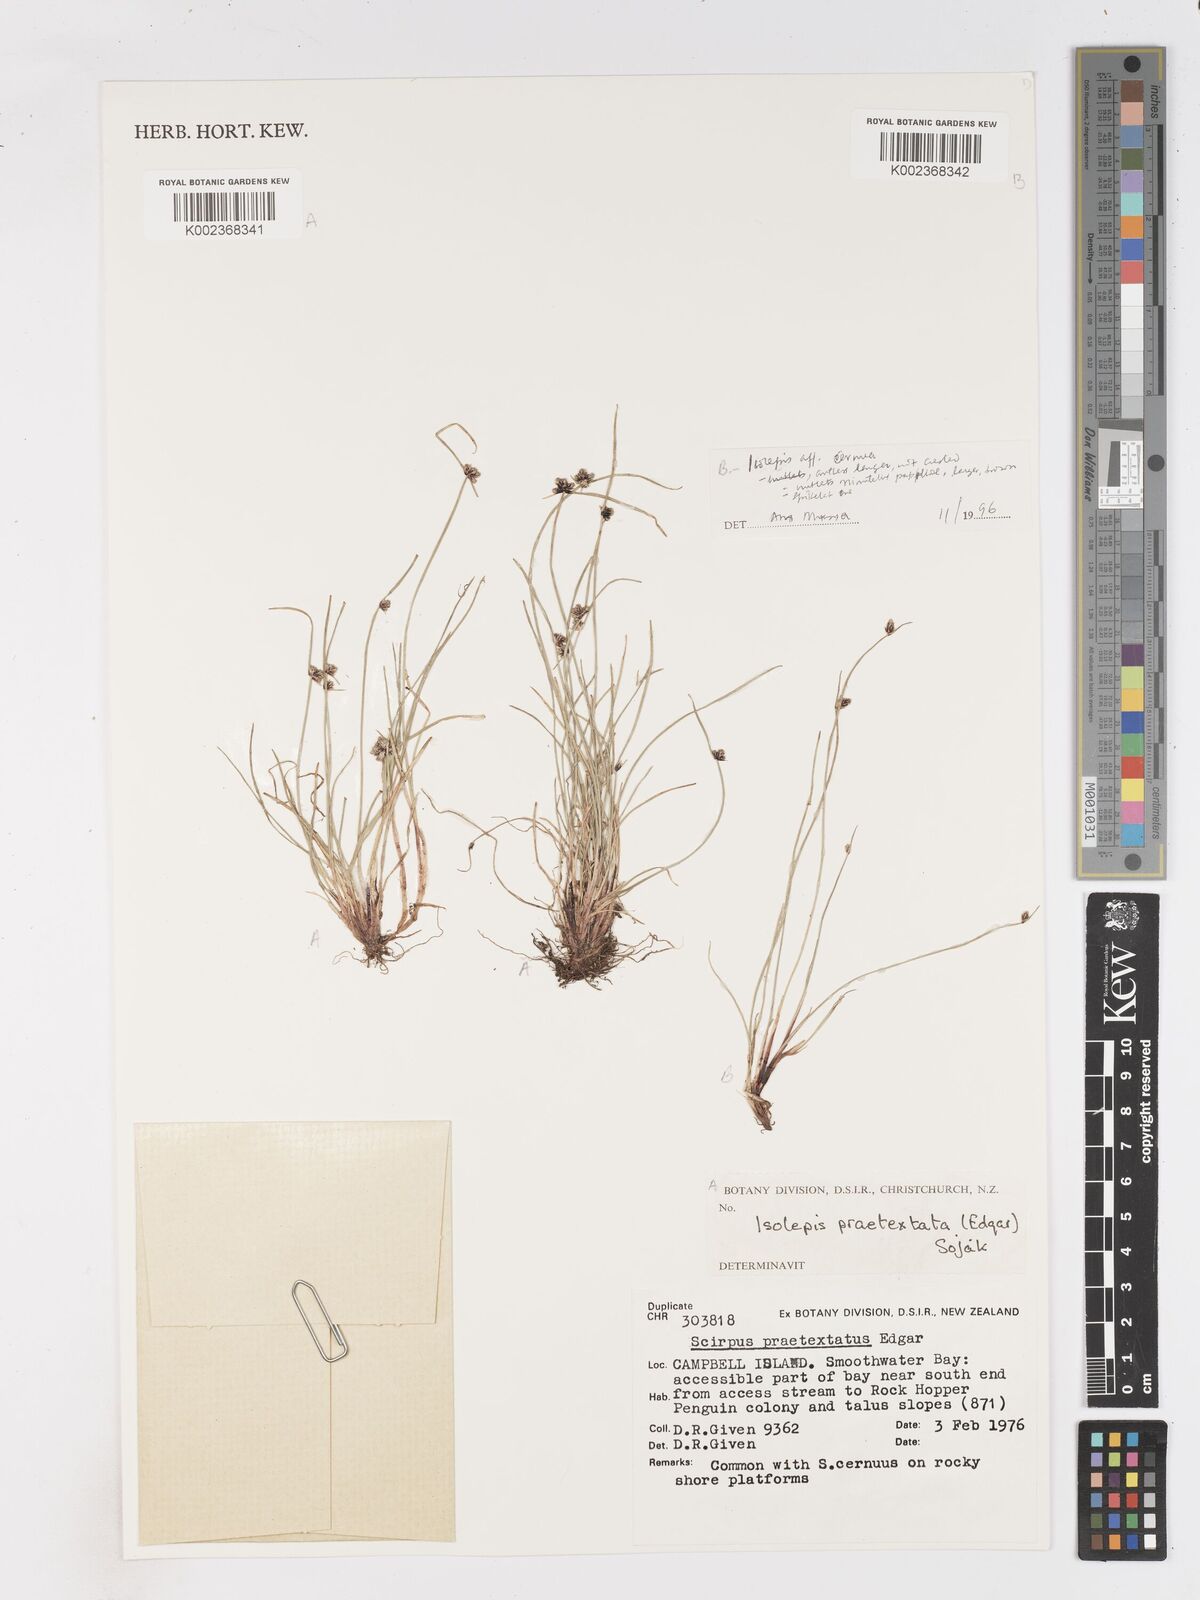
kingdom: Plantae
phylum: Tracheophyta
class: Liliopsida
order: Poales
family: Cyperaceae
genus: Isolepis
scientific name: Isolepis praetextata
